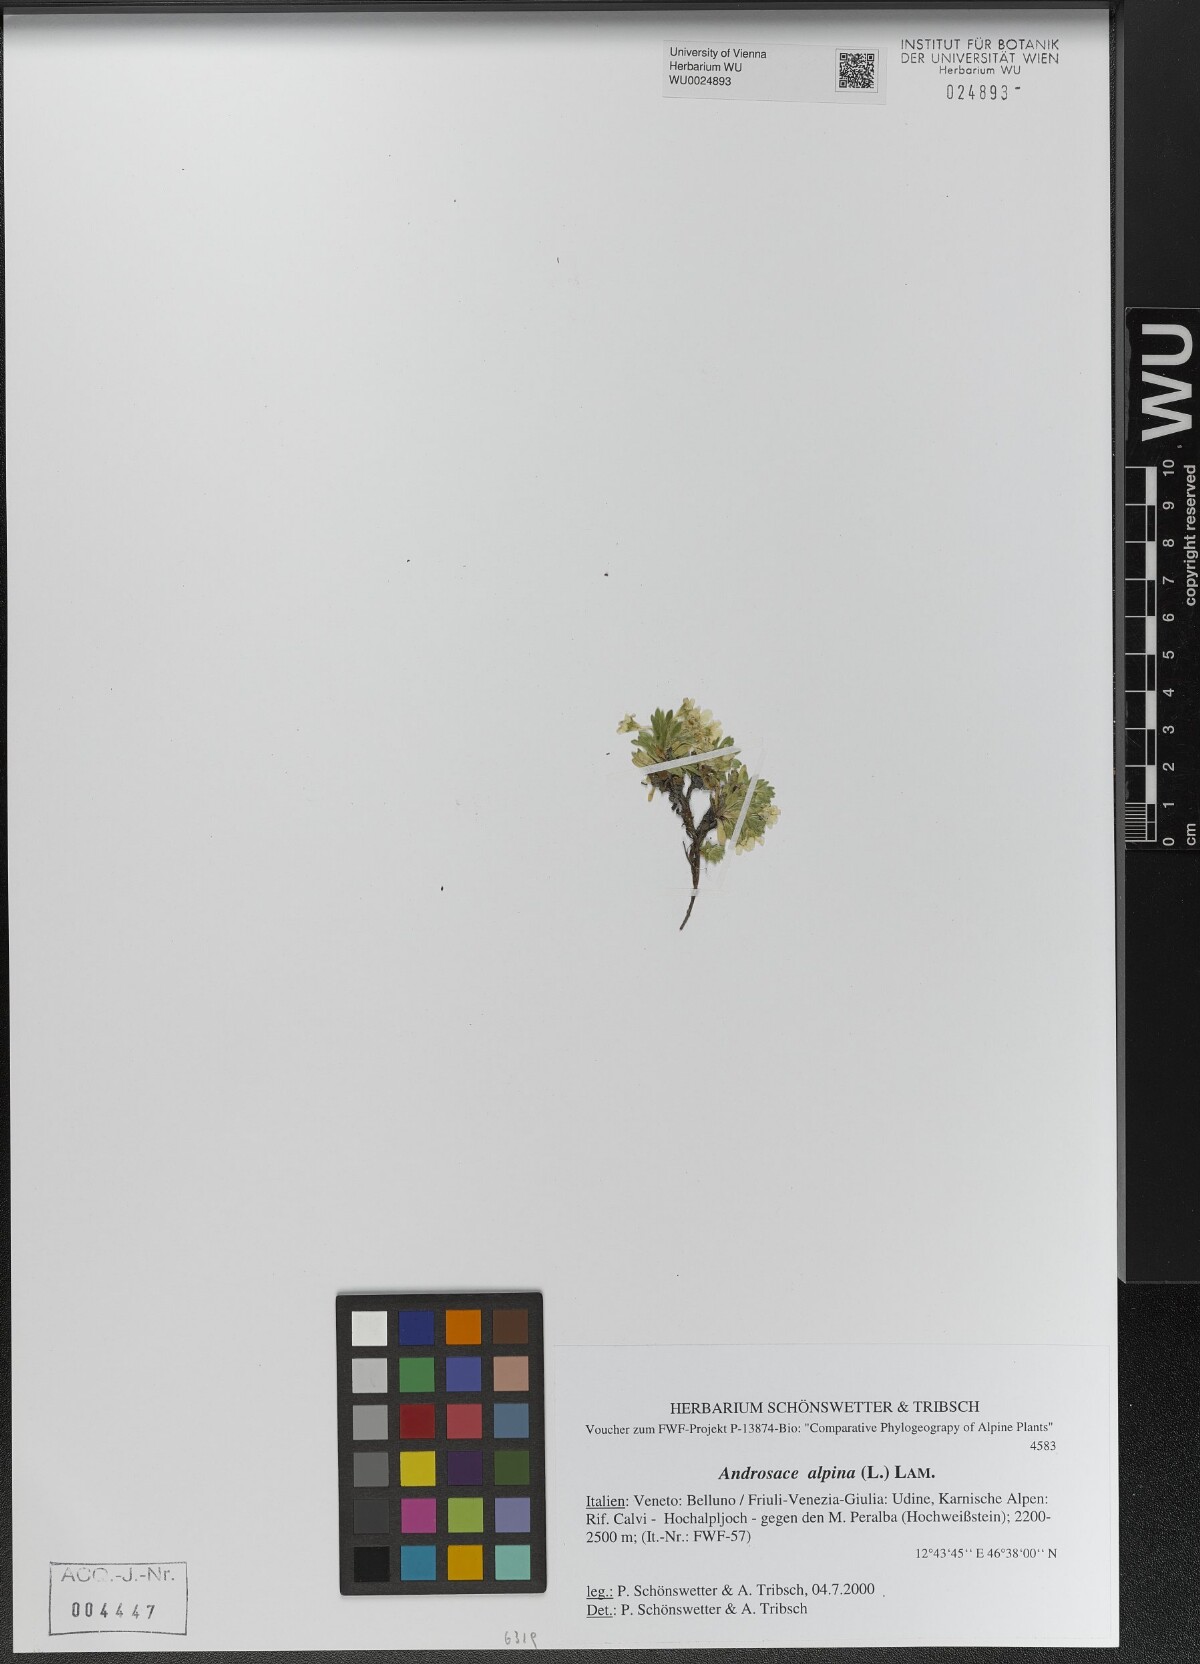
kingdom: Plantae
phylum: Tracheophyta
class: Magnoliopsida
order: Ericales
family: Primulaceae
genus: Androsace
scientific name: Androsace alpina
